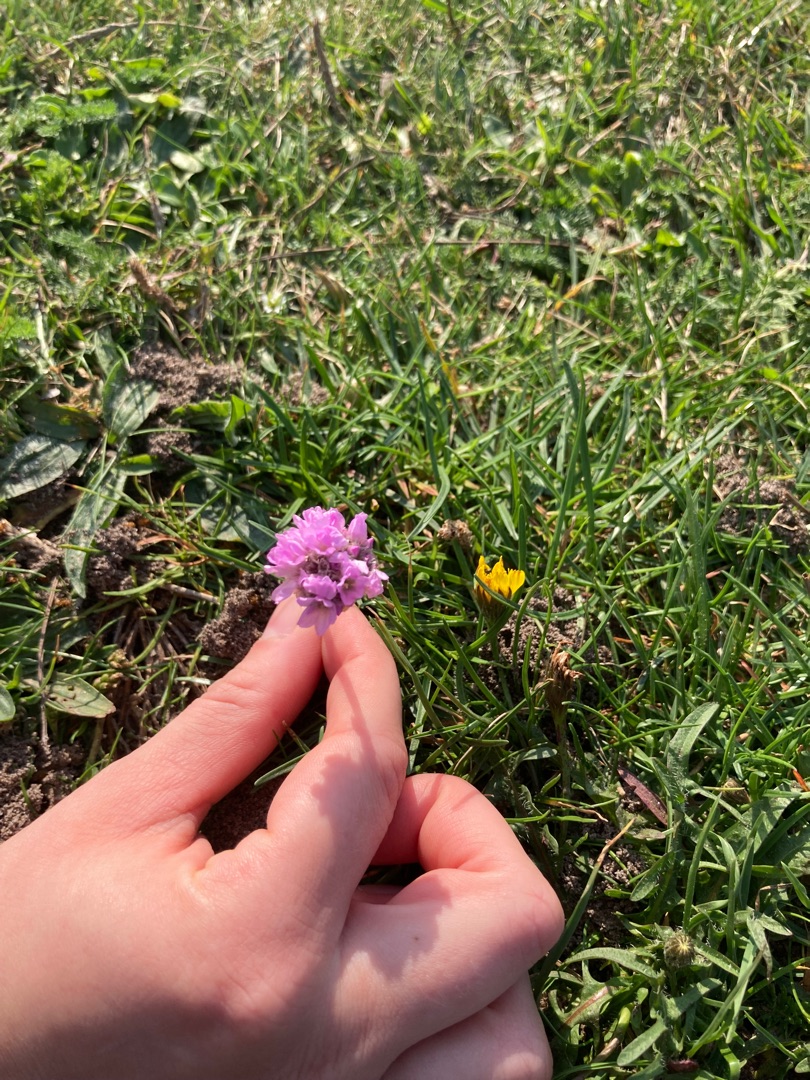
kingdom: Plantae
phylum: Tracheophyta
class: Magnoliopsida
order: Caryophyllales
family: Plumbaginaceae
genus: Armeria
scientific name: Armeria maritima
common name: Engelskgræs
